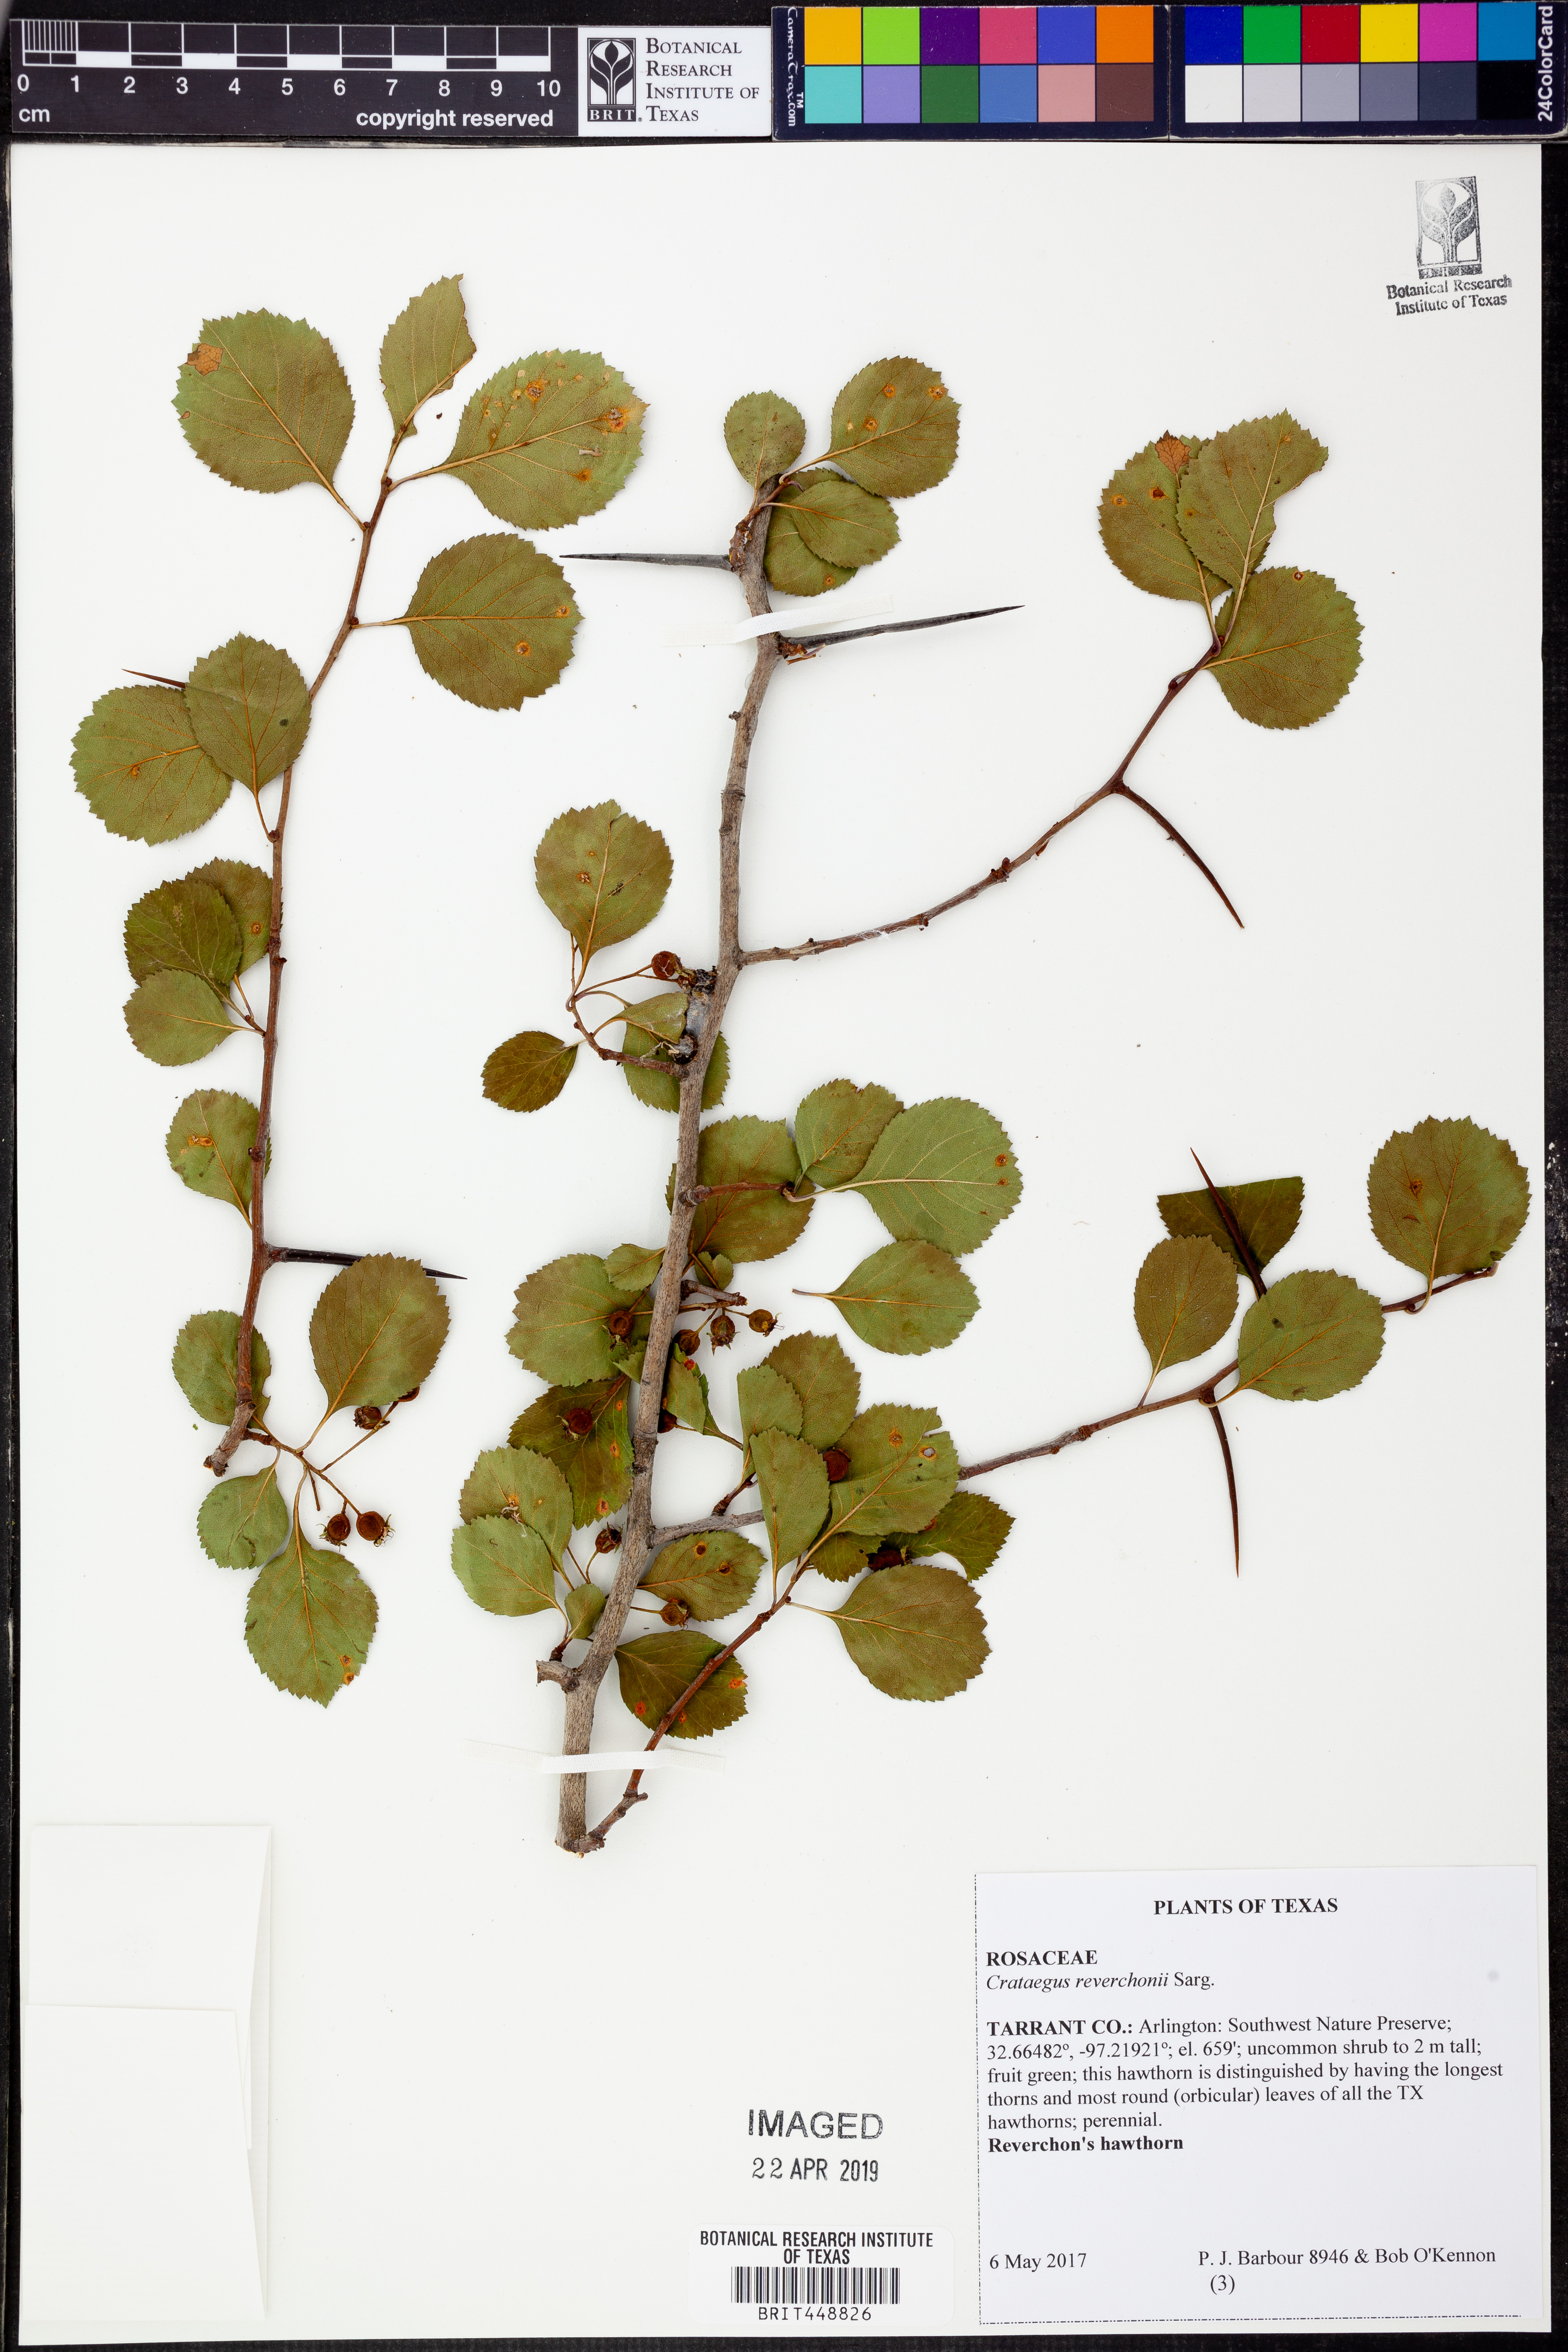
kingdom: Plantae
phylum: Tracheophyta
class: Magnoliopsida
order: Rosales
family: Rosaceae
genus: Crataegus
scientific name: Crataegus reverchonii
